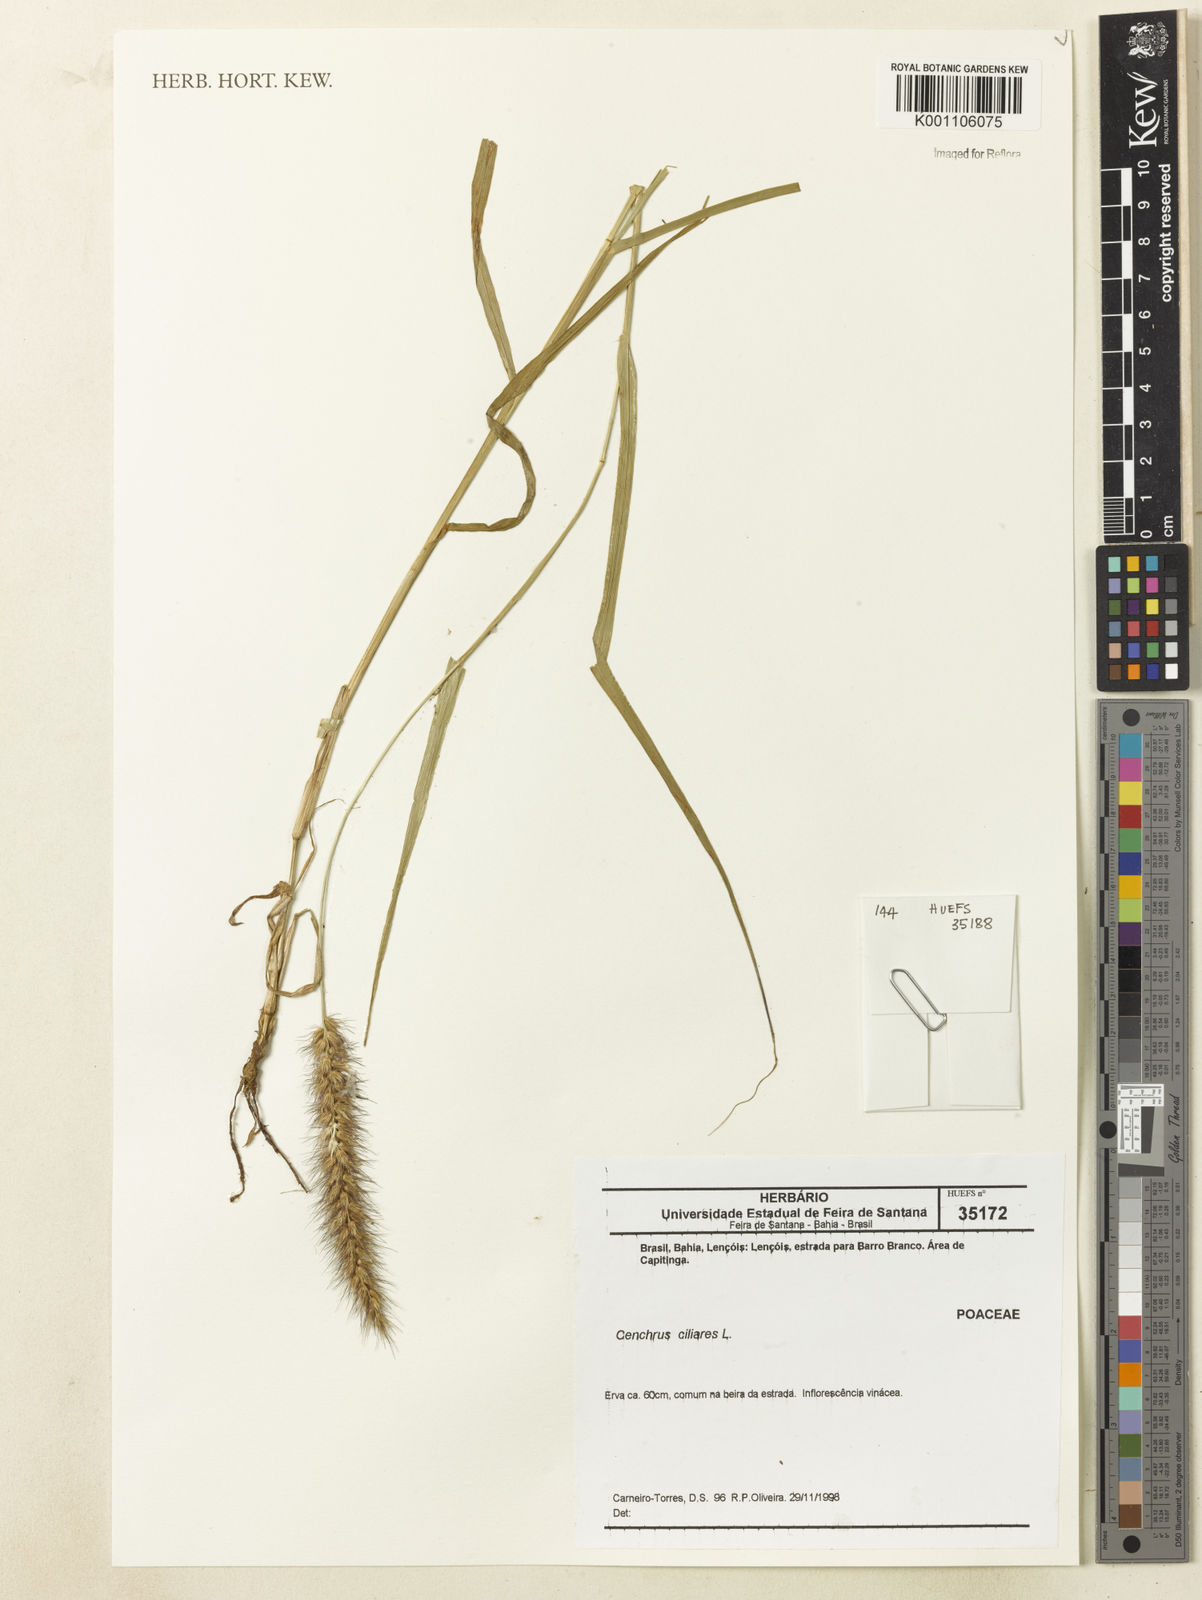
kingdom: Plantae
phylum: Tracheophyta
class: Liliopsida
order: Poales
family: Poaceae
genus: Cenchrus
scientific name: Cenchrus ciliaris
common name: Buffelgrass
